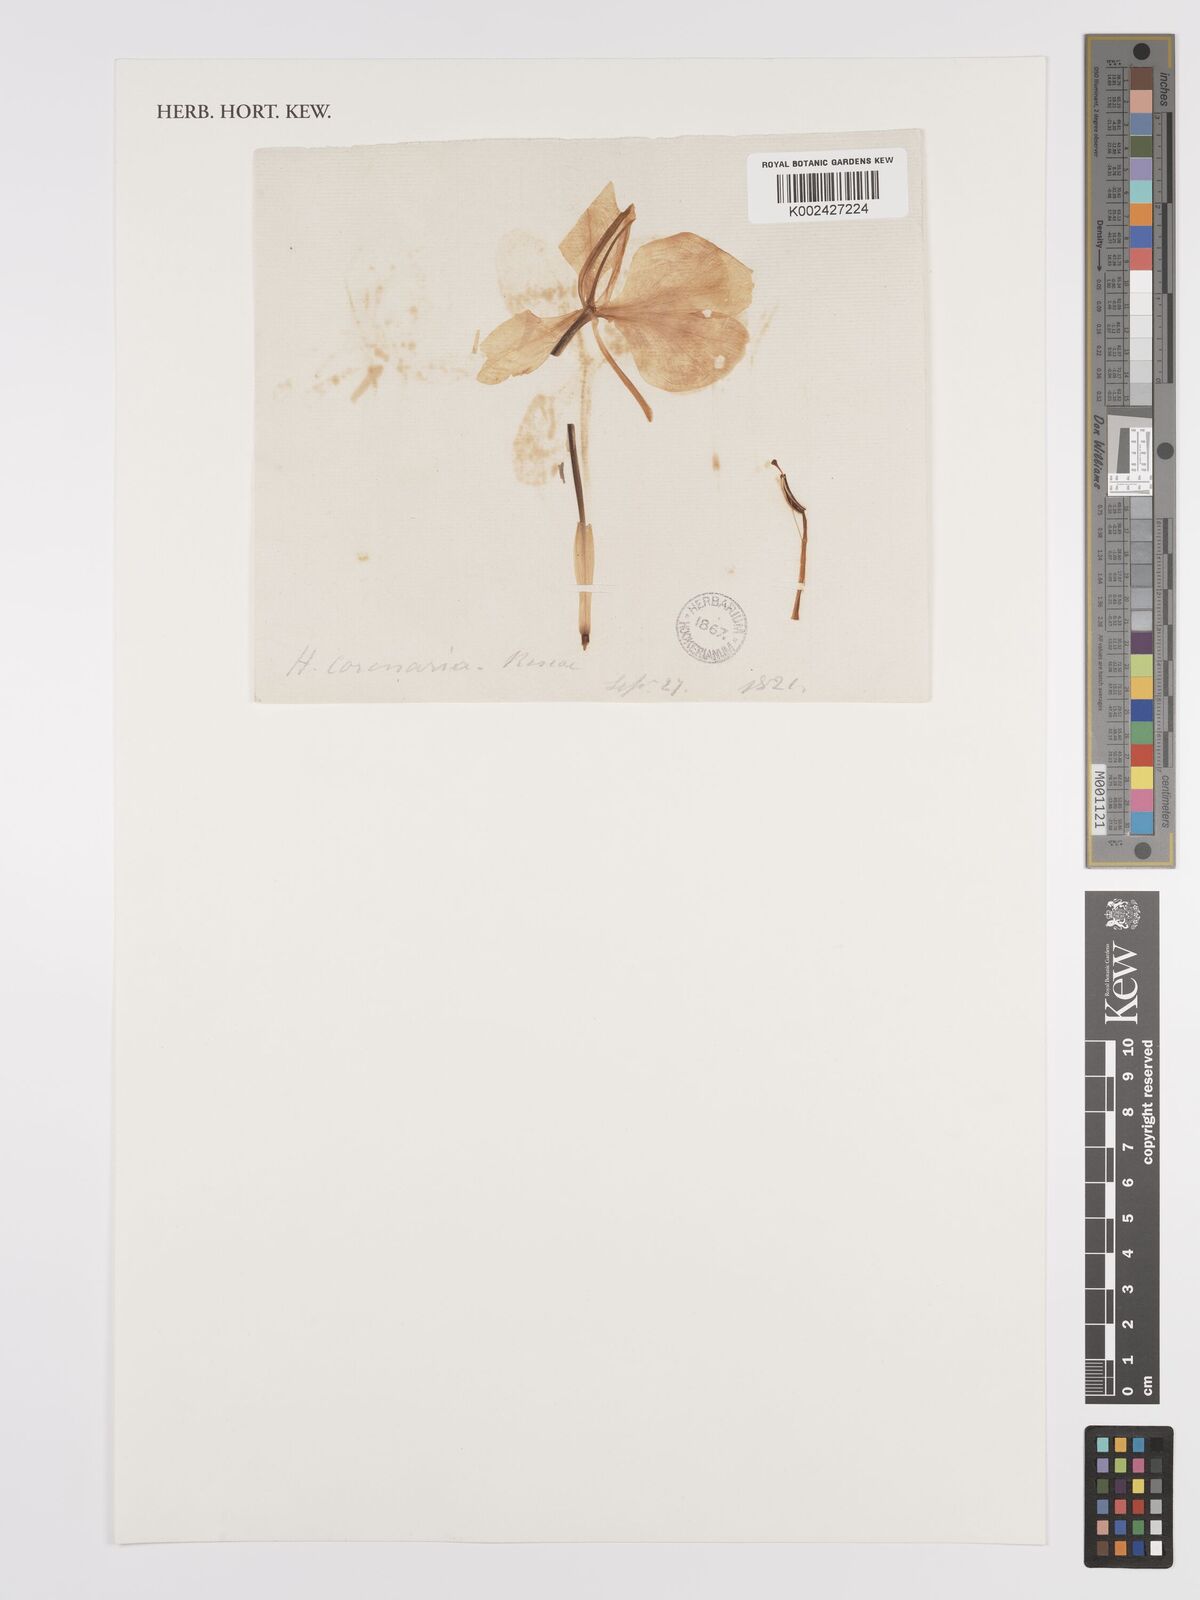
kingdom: Plantae
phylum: Tracheophyta
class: Liliopsida
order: Zingiberales
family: Zingiberaceae
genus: Hedychium
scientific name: Hedychium coronarium
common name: White garland-lily
